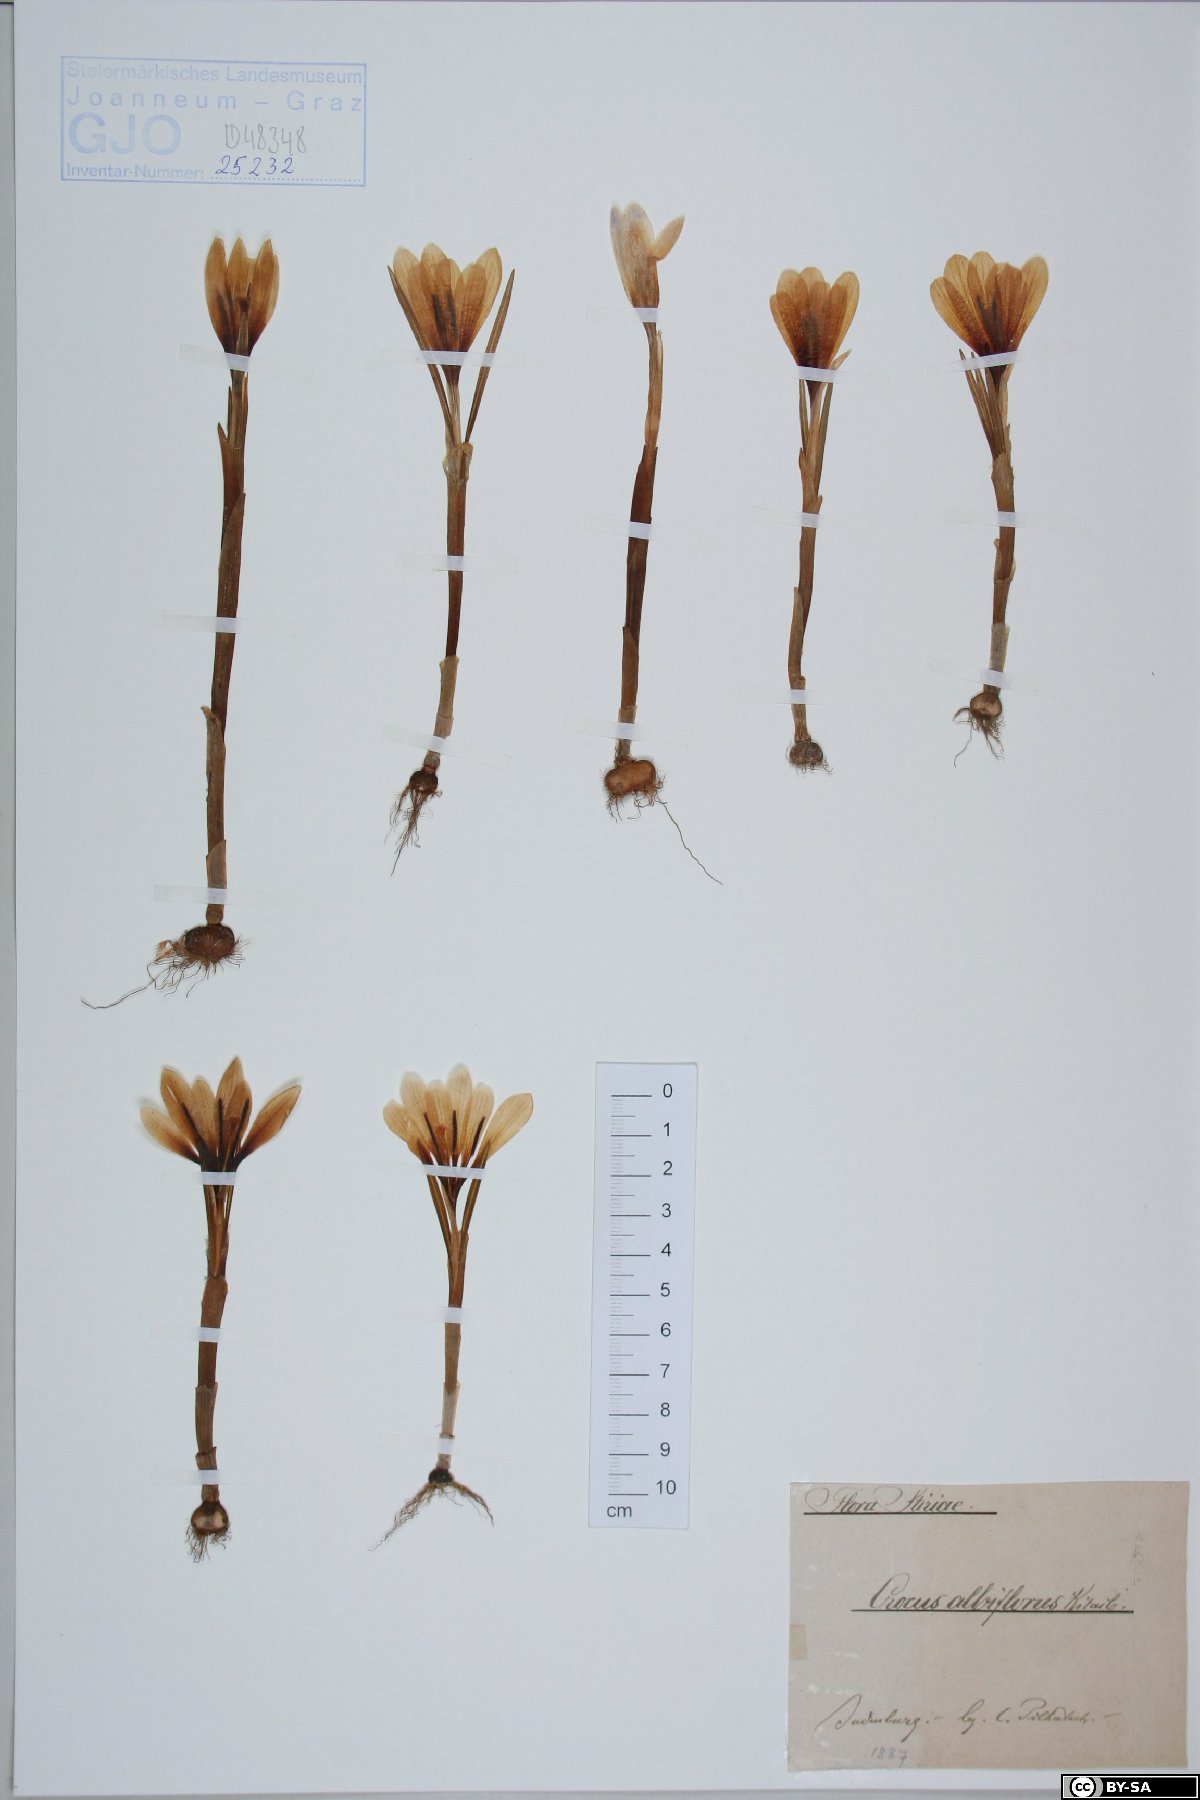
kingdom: Plantae
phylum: Tracheophyta
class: Liliopsida
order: Asparagales
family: Iridaceae
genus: Crocus
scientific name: Crocus vernus
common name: Spring crocus
